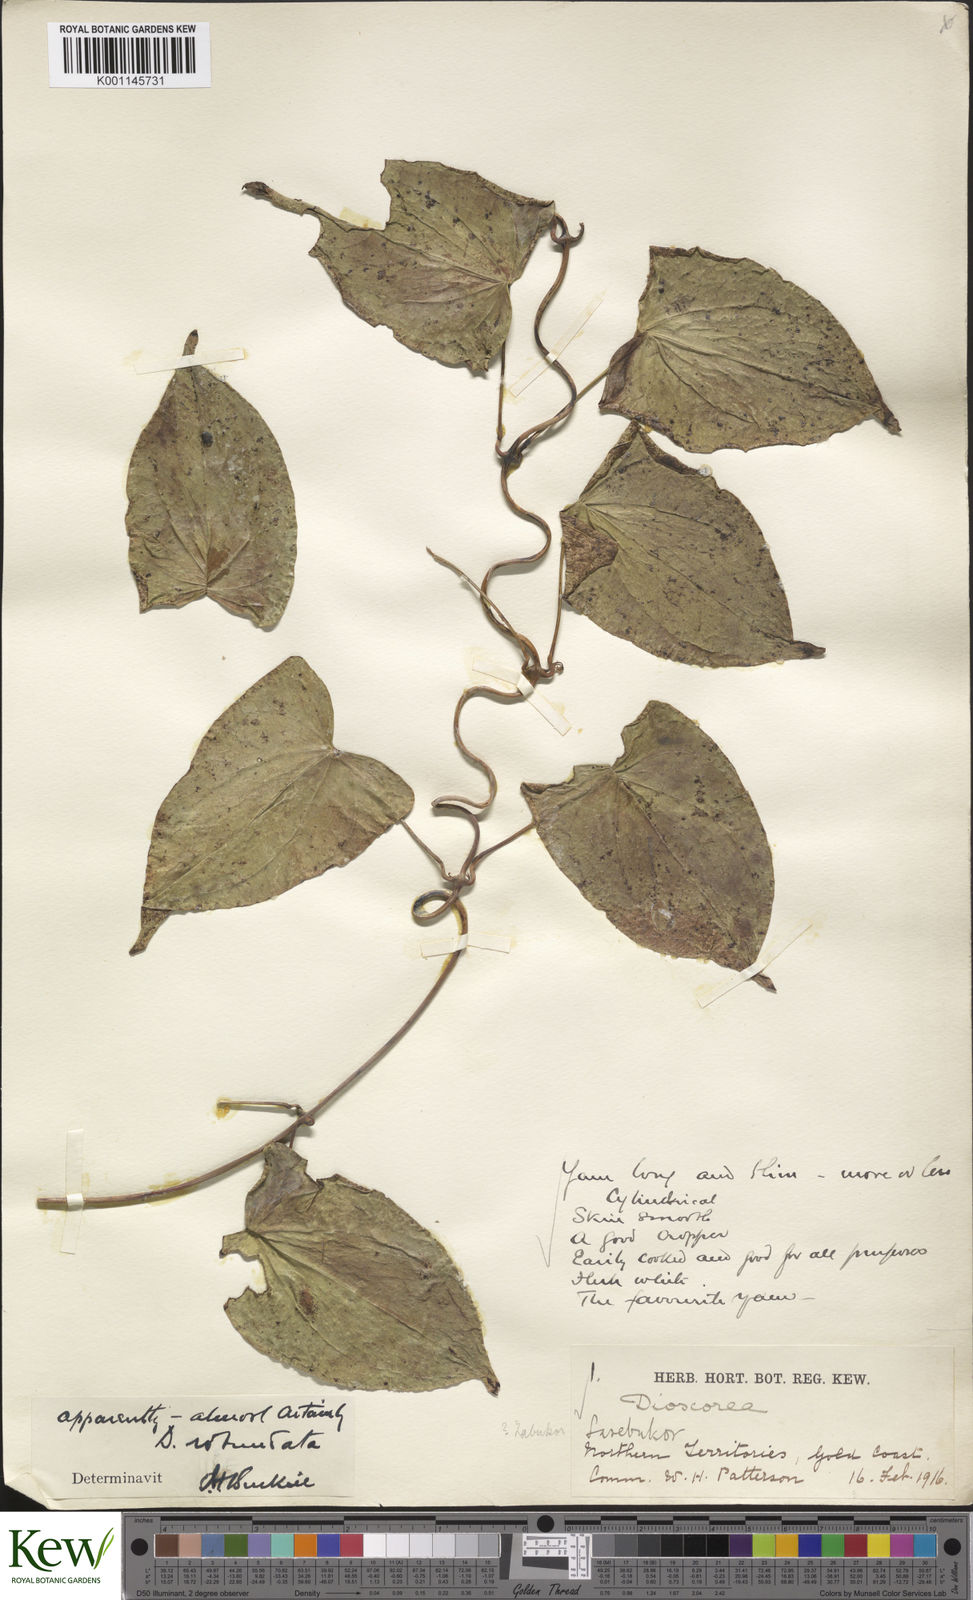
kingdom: Plantae
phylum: Tracheophyta
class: Liliopsida
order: Dioscoreales
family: Dioscoreaceae
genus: Dioscorea
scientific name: Dioscorea cayenensis
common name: Attoto yam
